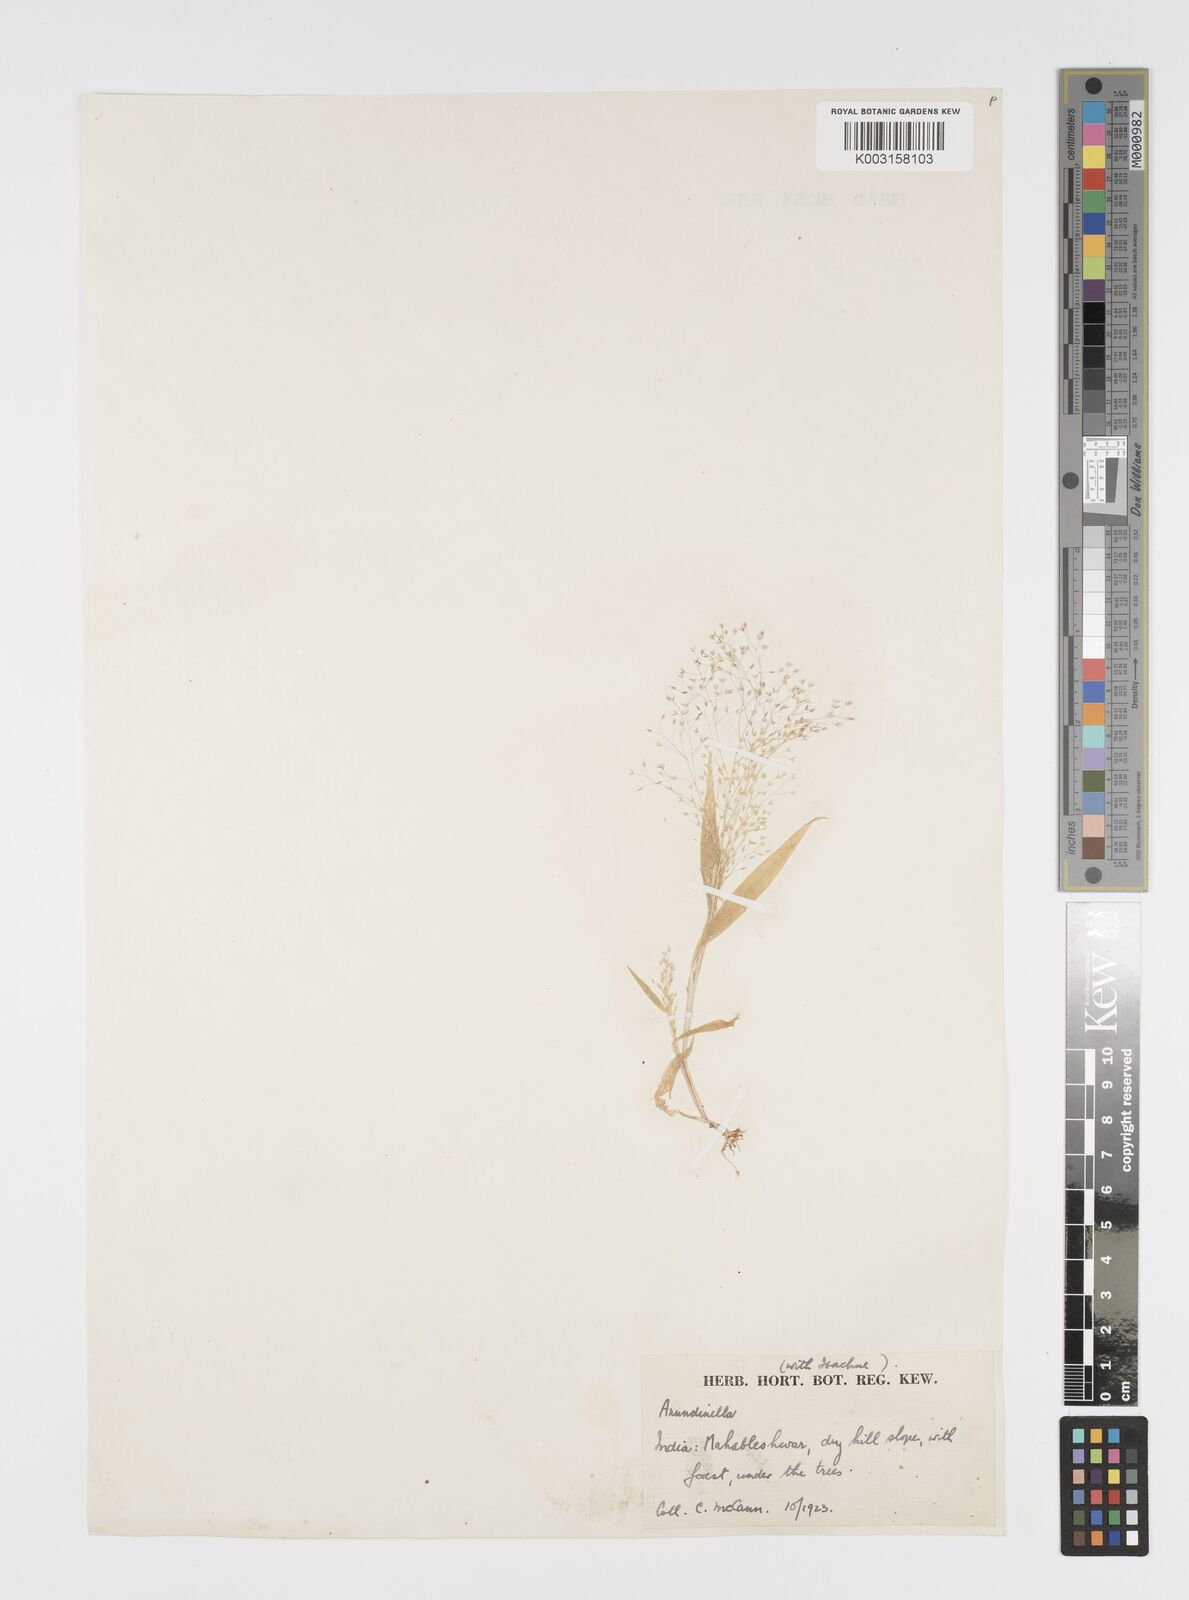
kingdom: Plantae
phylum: Tracheophyta
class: Liliopsida
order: Poales
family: Poaceae
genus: Arundinella
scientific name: Arundinella pumila
